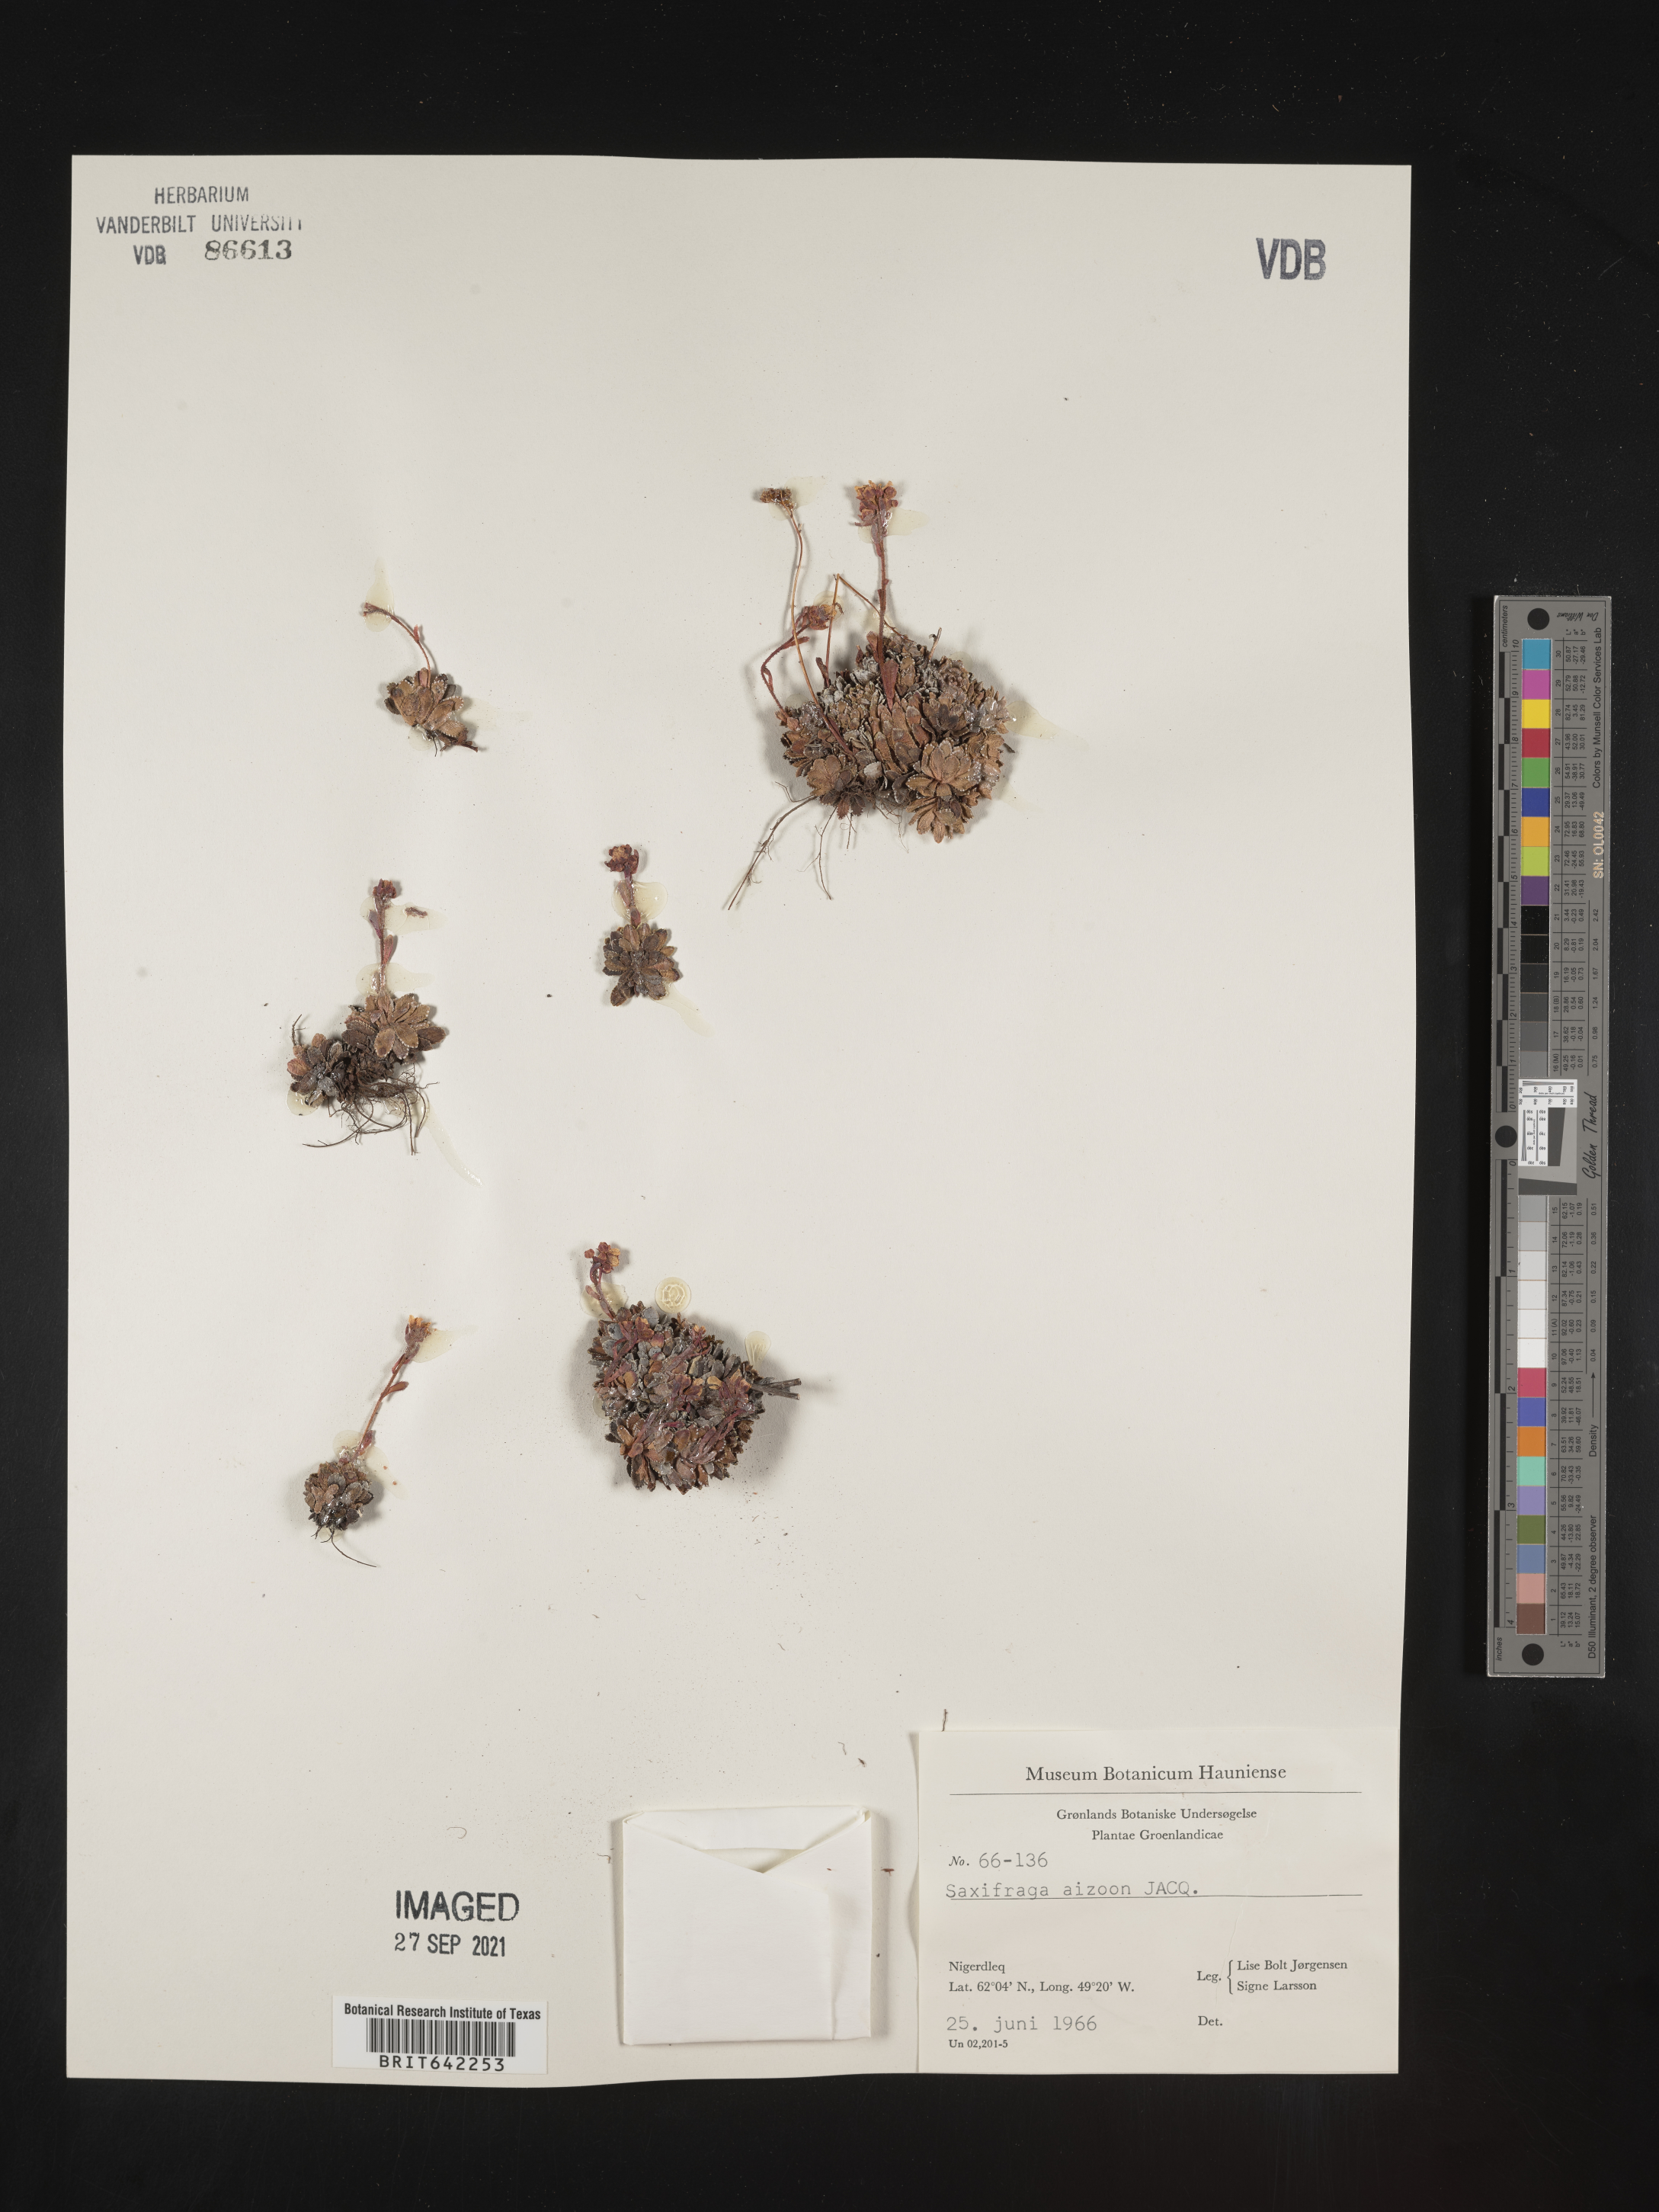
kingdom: Plantae
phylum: Tracheophyta
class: Magnoliopsida
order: Saxifragales
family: Saxifragaceae
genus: Saxifraga
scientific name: Saxifraga
